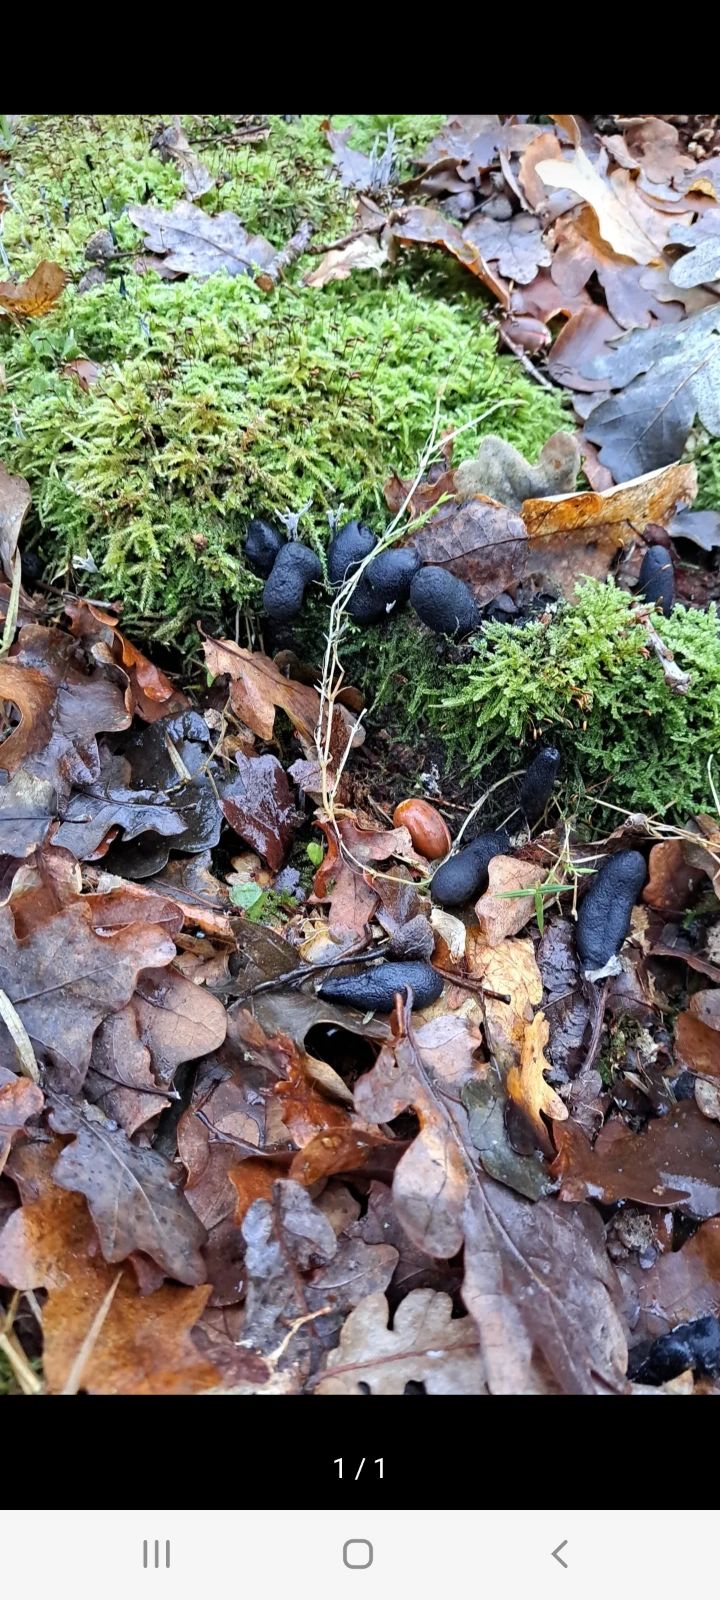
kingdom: Fungi
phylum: Ascomycota
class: Sordariomycetes
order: Xylariales
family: Xylariaceae
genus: Xylaria
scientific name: Xylaria polymorpha
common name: kølle-stødsvamp
